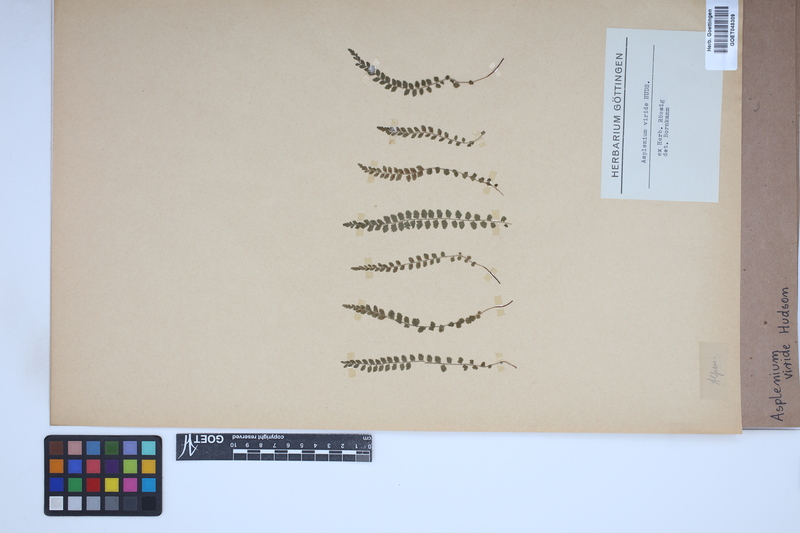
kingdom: Plantae
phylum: Tracheophyta
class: Polypodiopsida
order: Polypodiales
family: Aspleniaceae
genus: Asplenium
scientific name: Asplenium viride
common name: Green spleenwort
